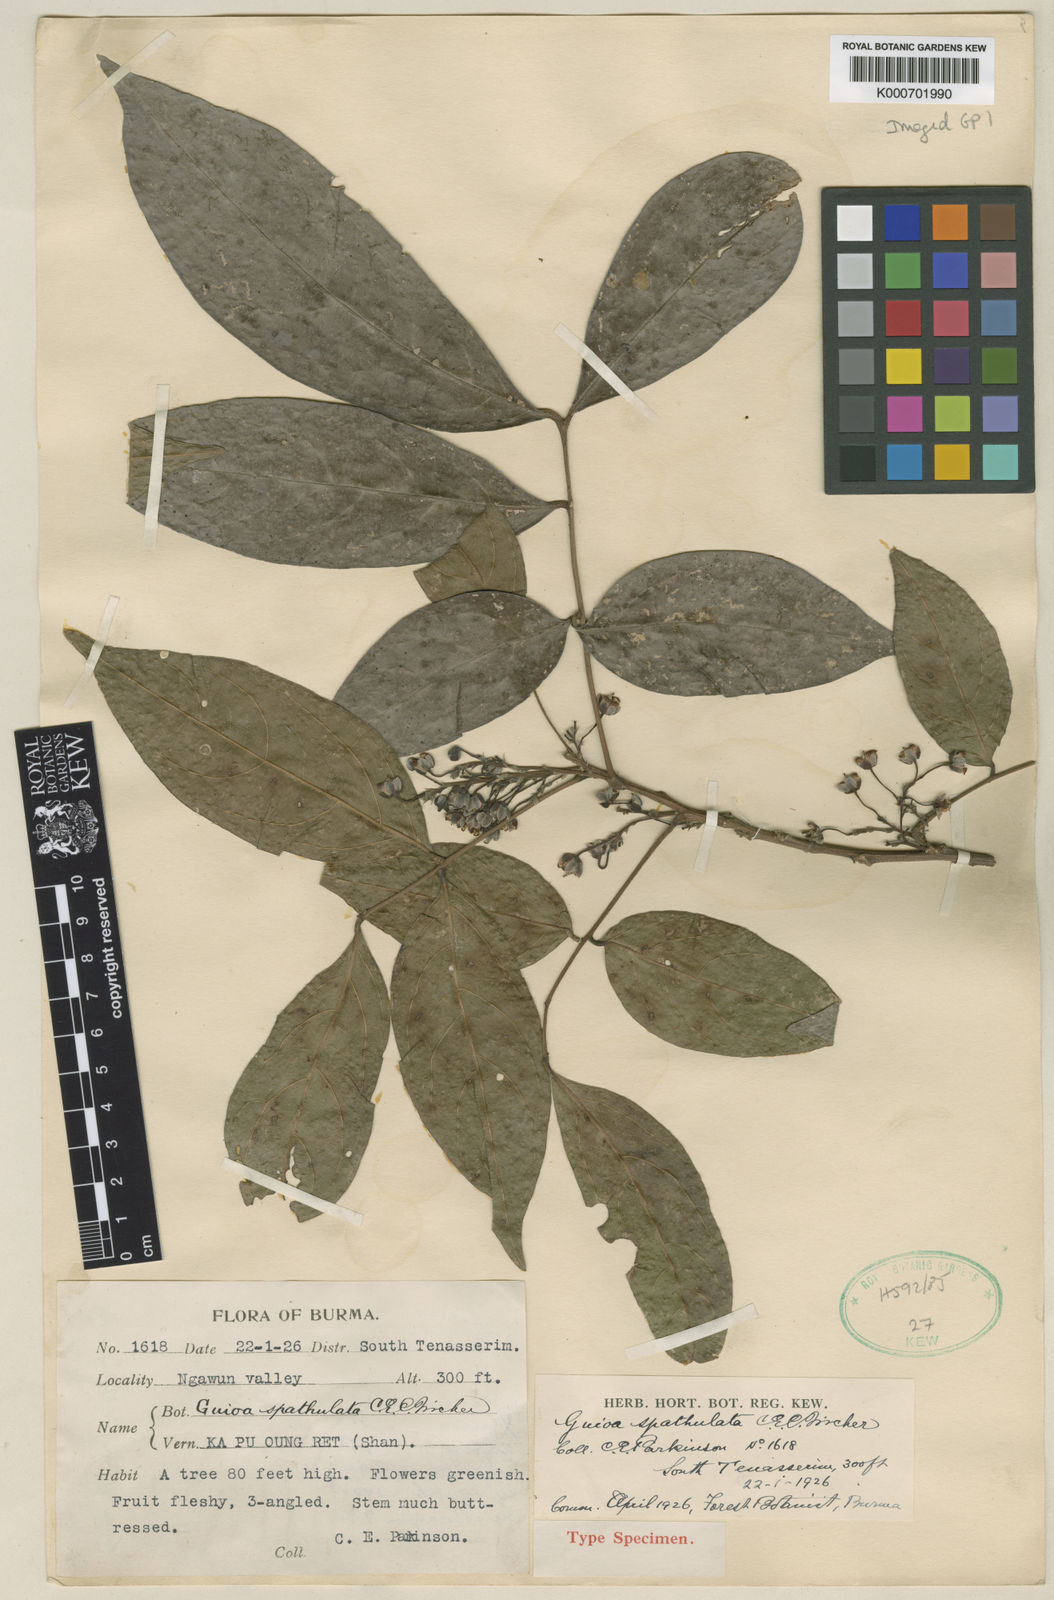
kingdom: Plantae
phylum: Tracheophyta
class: Magnoliopsida
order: Sapindales
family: Sapindaceae
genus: Lepisanthes
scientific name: Lepisanthes tetraphylla
